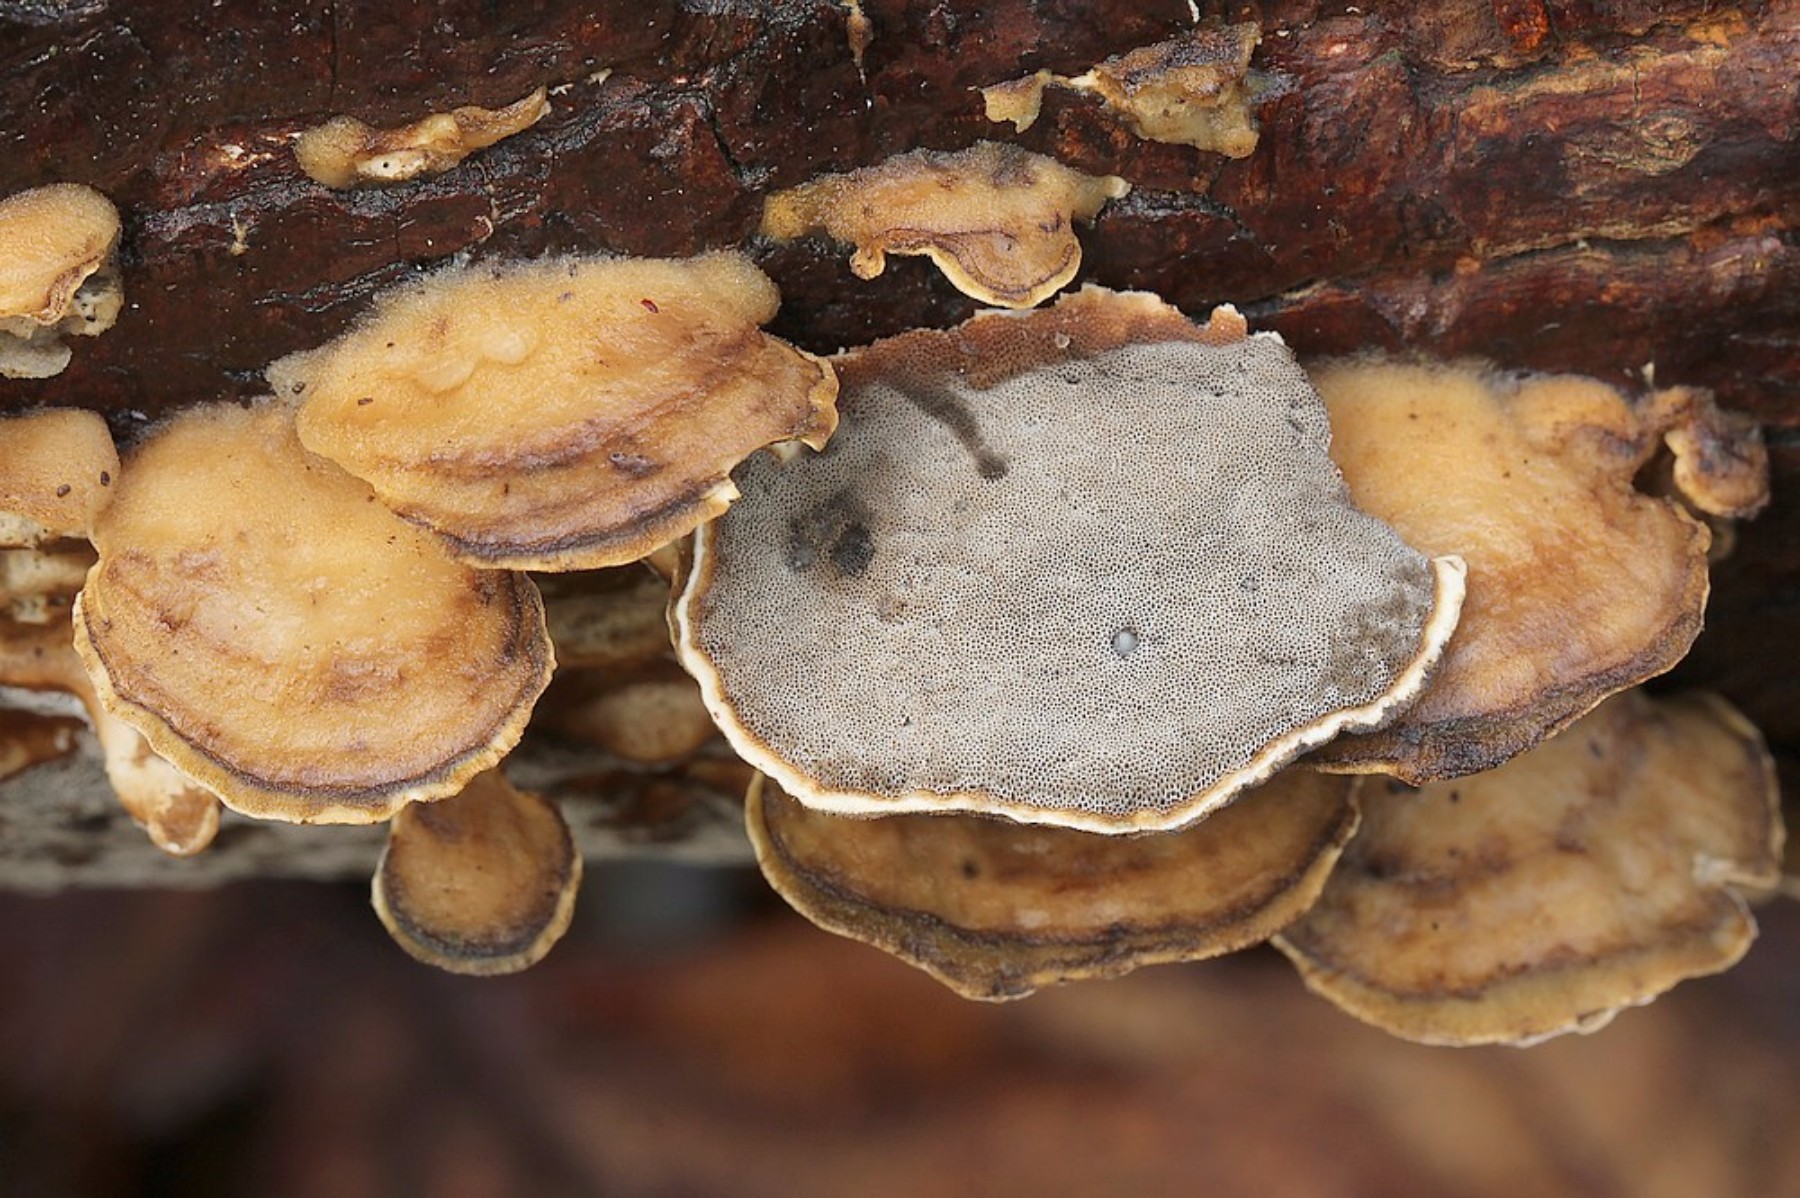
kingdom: Fungi
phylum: Basidiomycota
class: Agaricomycetes
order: Polyporales
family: Phanerochaetaceae
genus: Bjerkandera
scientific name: Bjerkandera adusta
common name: sveden sodporesvamp
